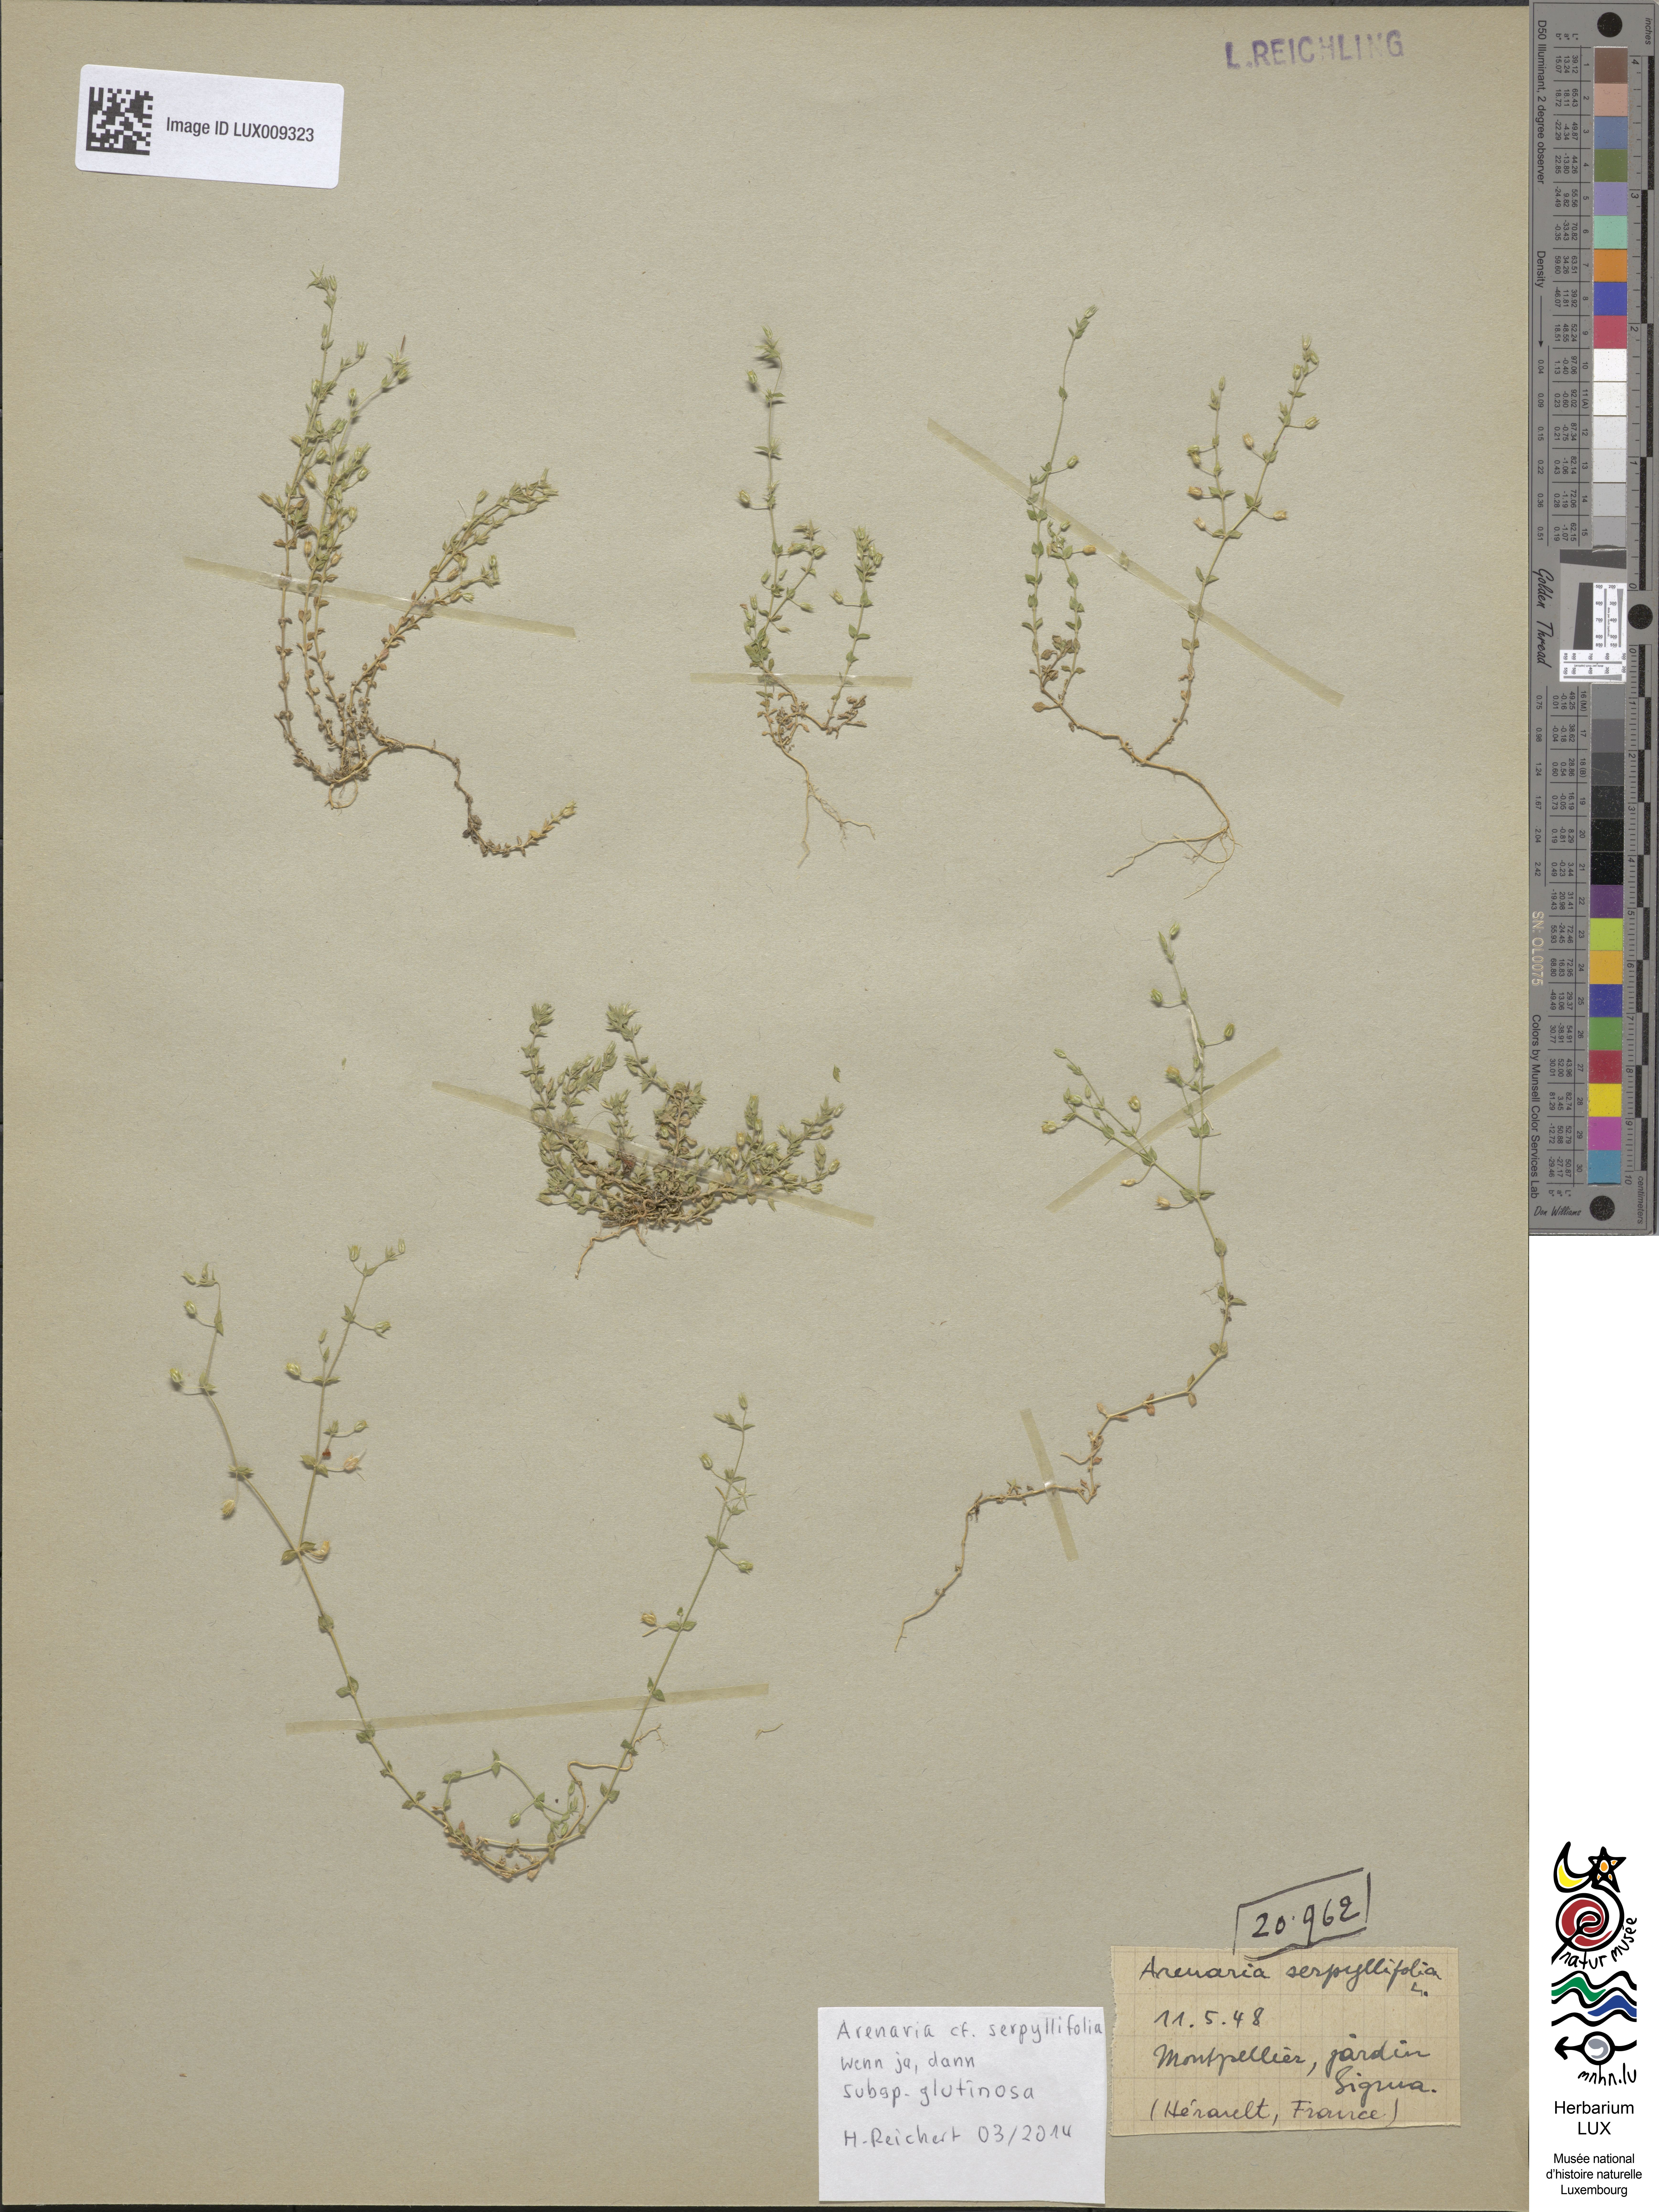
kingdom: Plantae
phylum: Tracheophyta
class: Magnoliopsida
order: Caryophyllales
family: Caryophyllaceae
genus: Arenaria
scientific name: Arenaria leptoclados
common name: Thyme-leaved sandwort
